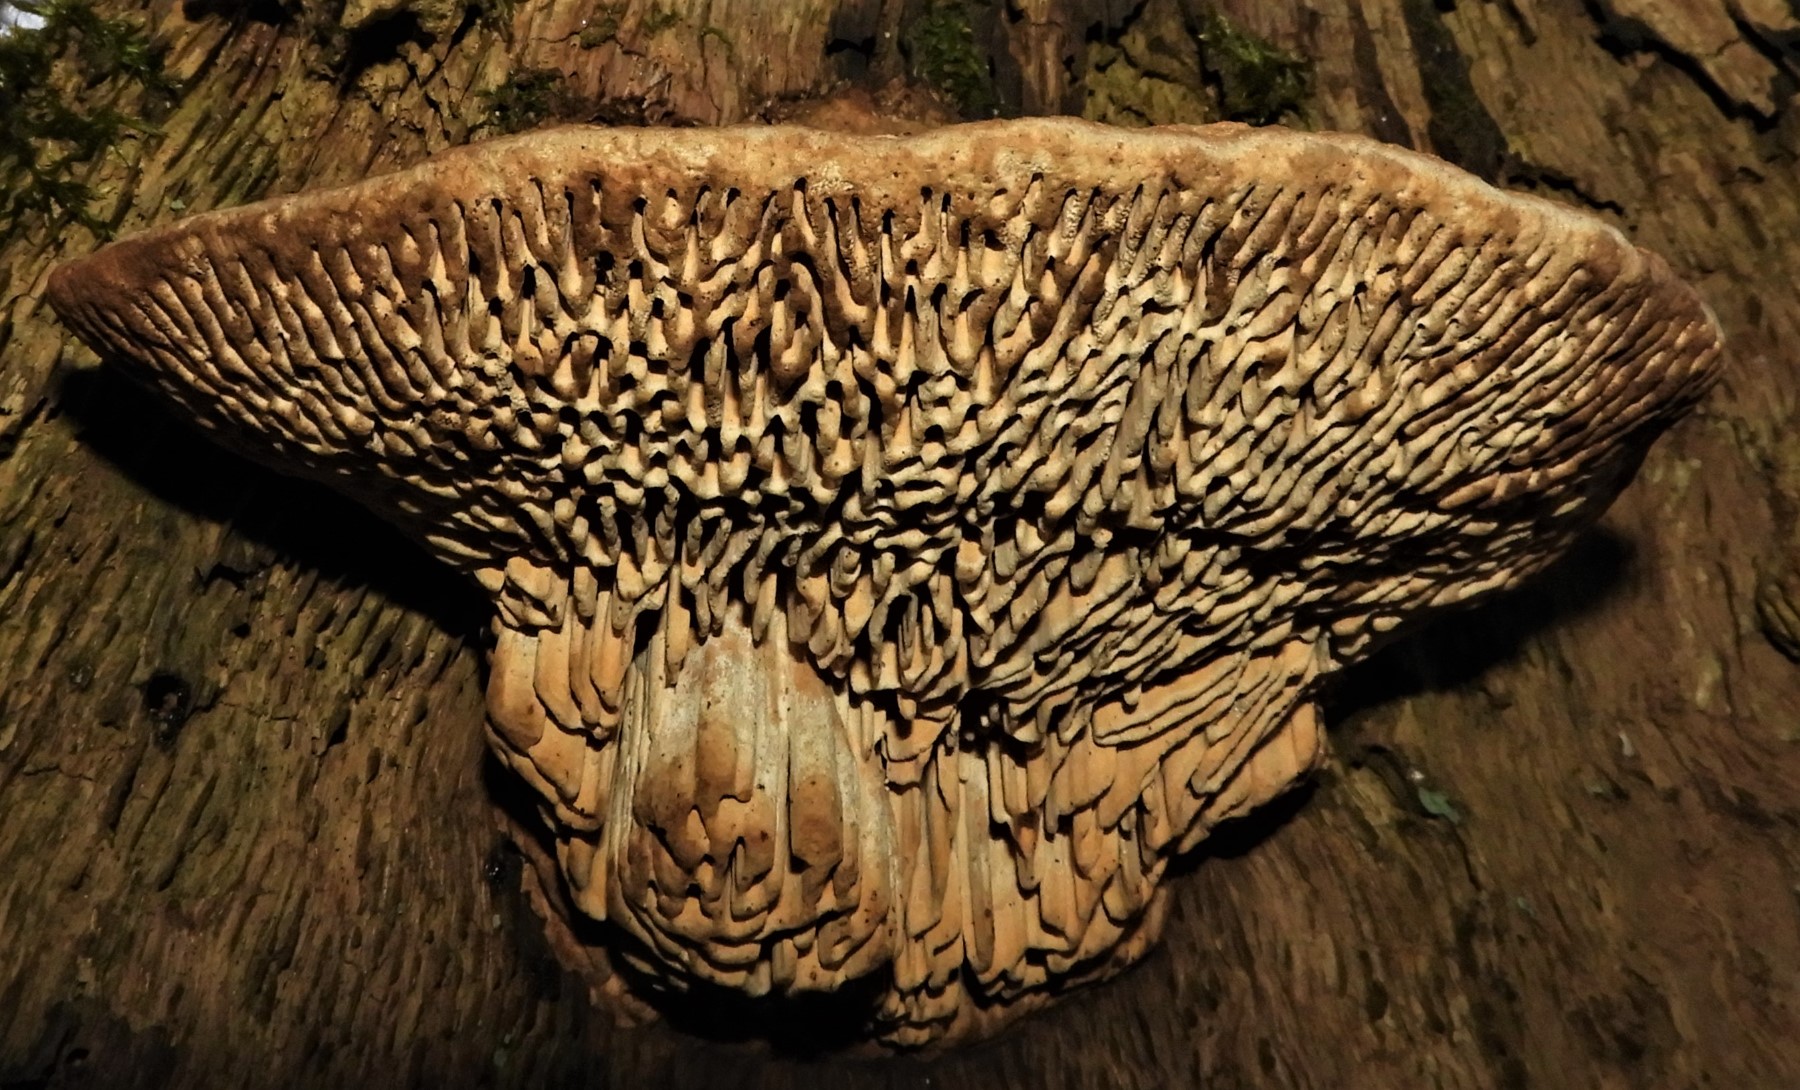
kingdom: Fungi
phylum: Basidiomycota
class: Agaricomycetes
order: Polyporales
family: Fomitopsidaceae
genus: Daedalea
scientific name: Daedalea quercina
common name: ege-labyrintsvamp
